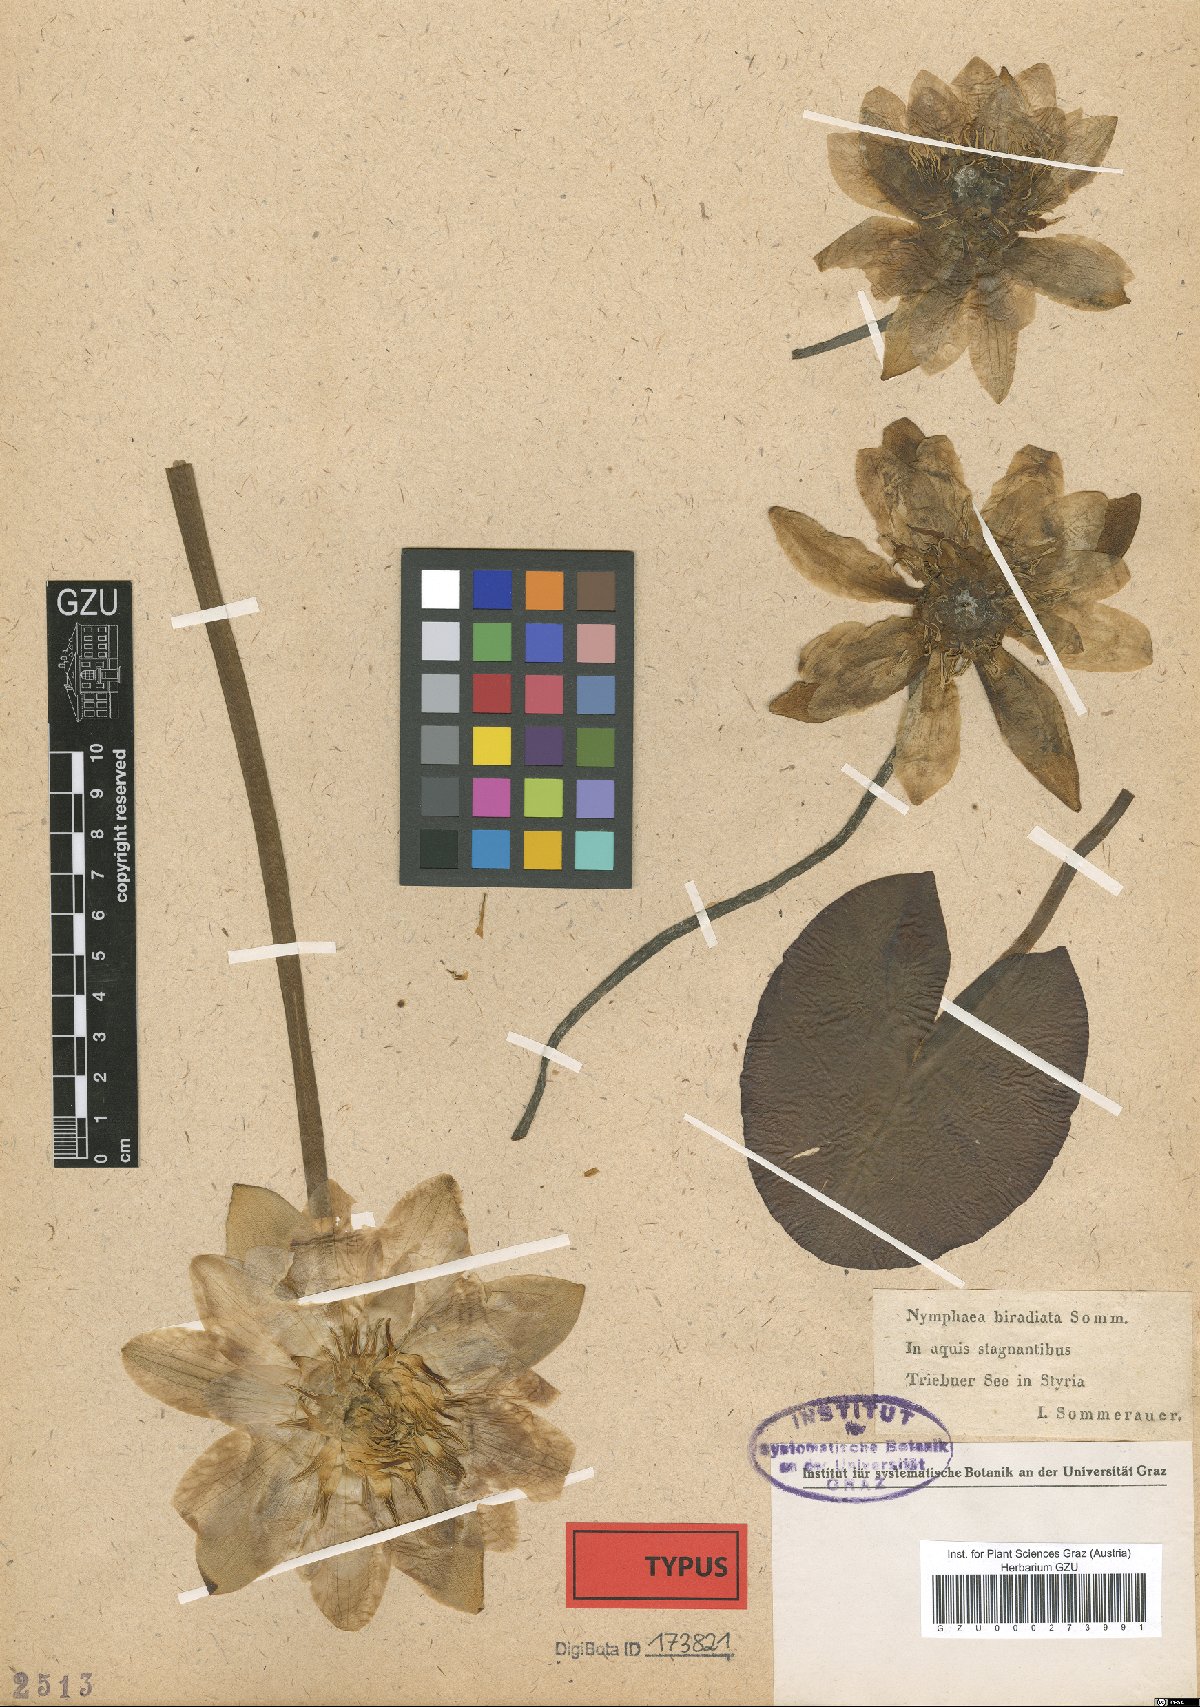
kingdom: Plantae
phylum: Tracheophyta
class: Magnoliopsida
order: Nymphaeales
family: Nymphaeaceae
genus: Nymphaea
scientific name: Nymphaea alba
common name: White water-lily
